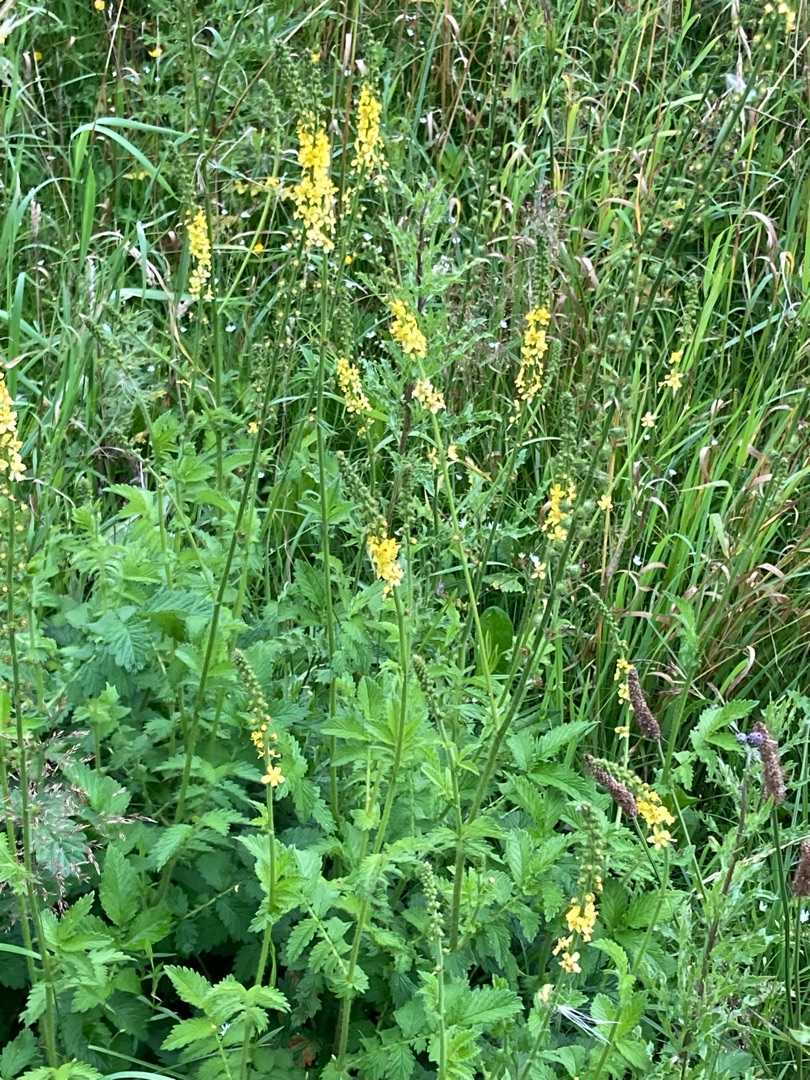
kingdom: Plantae
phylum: Tracheophyta
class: Magnoliopsida
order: Rosales
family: Rosaceae
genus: Agrimonia
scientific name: Agrimonia eupatoria
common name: Almindelig agermåne
